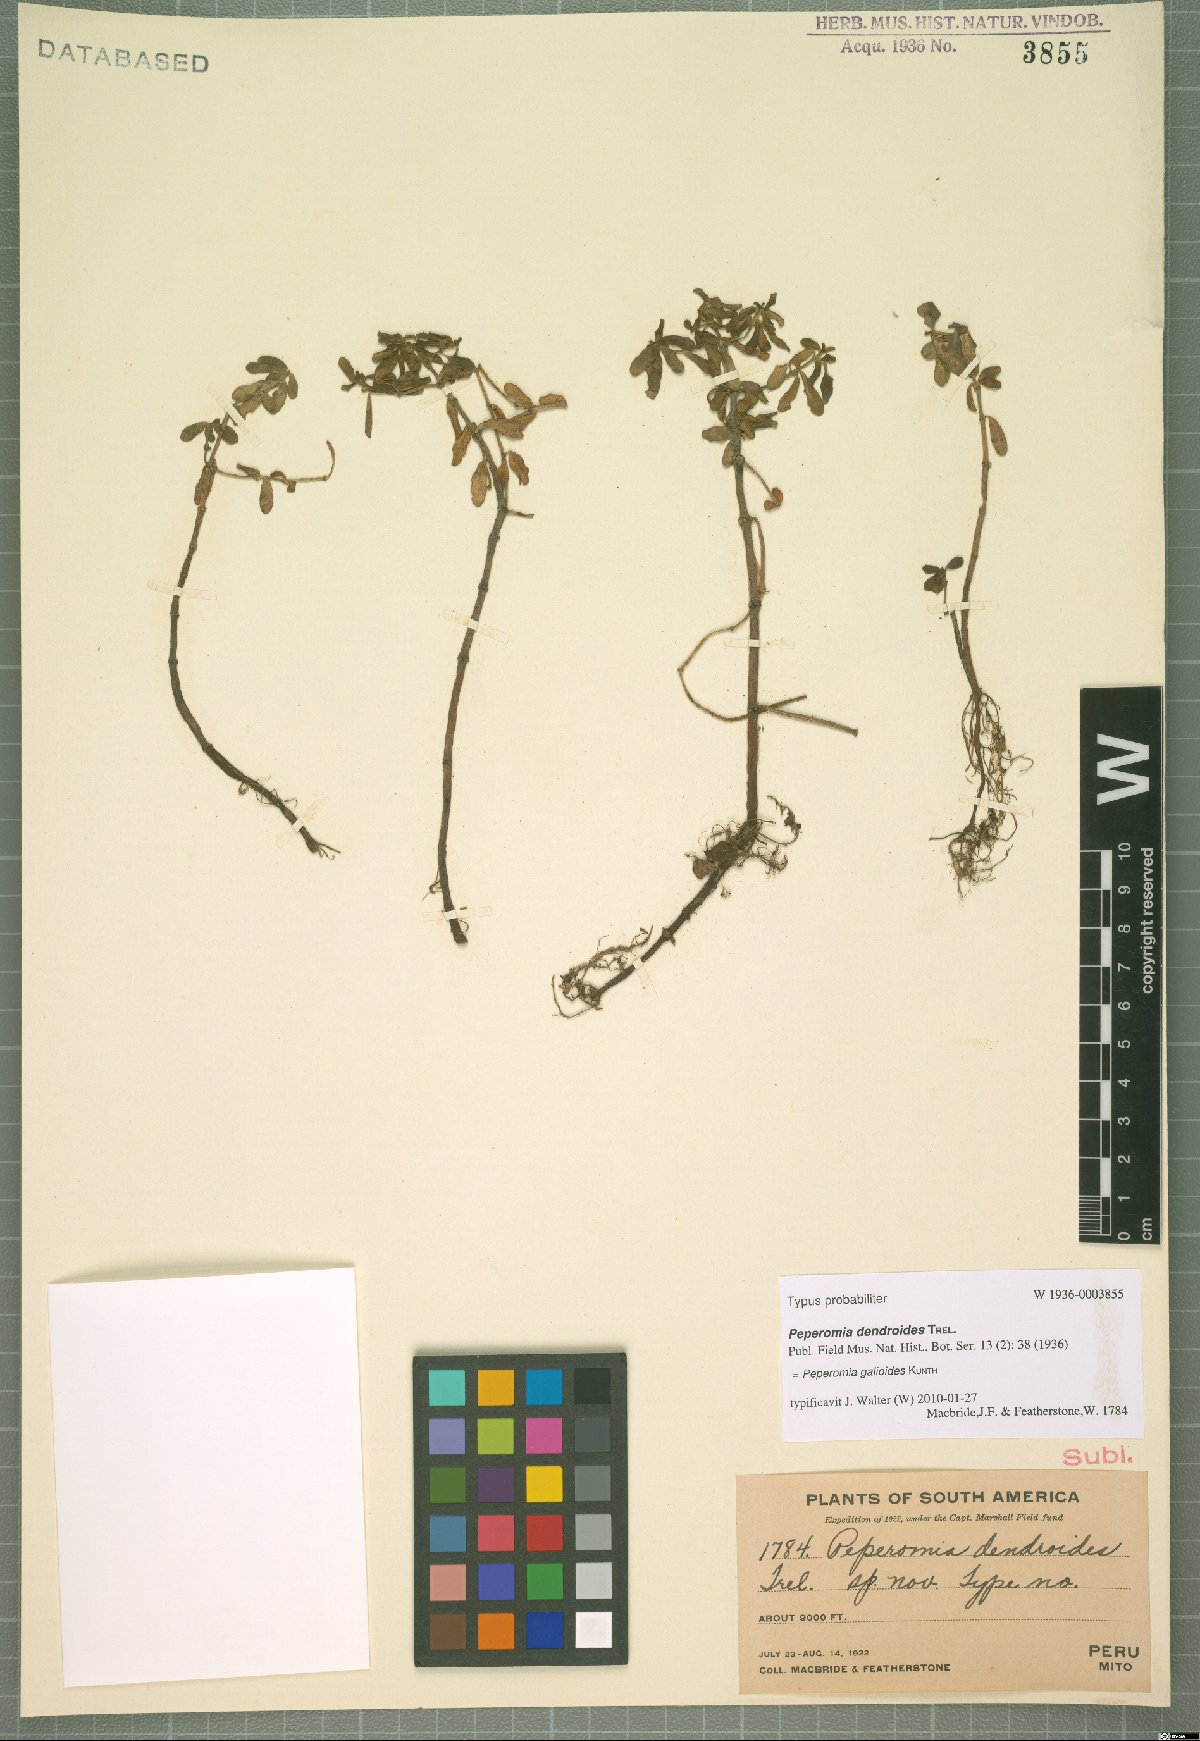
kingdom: Plantae
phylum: Tracheophyta
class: Magnoliopsida
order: Piperales
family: Piperaceae
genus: Peperomia
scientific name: Peperomia galioides
